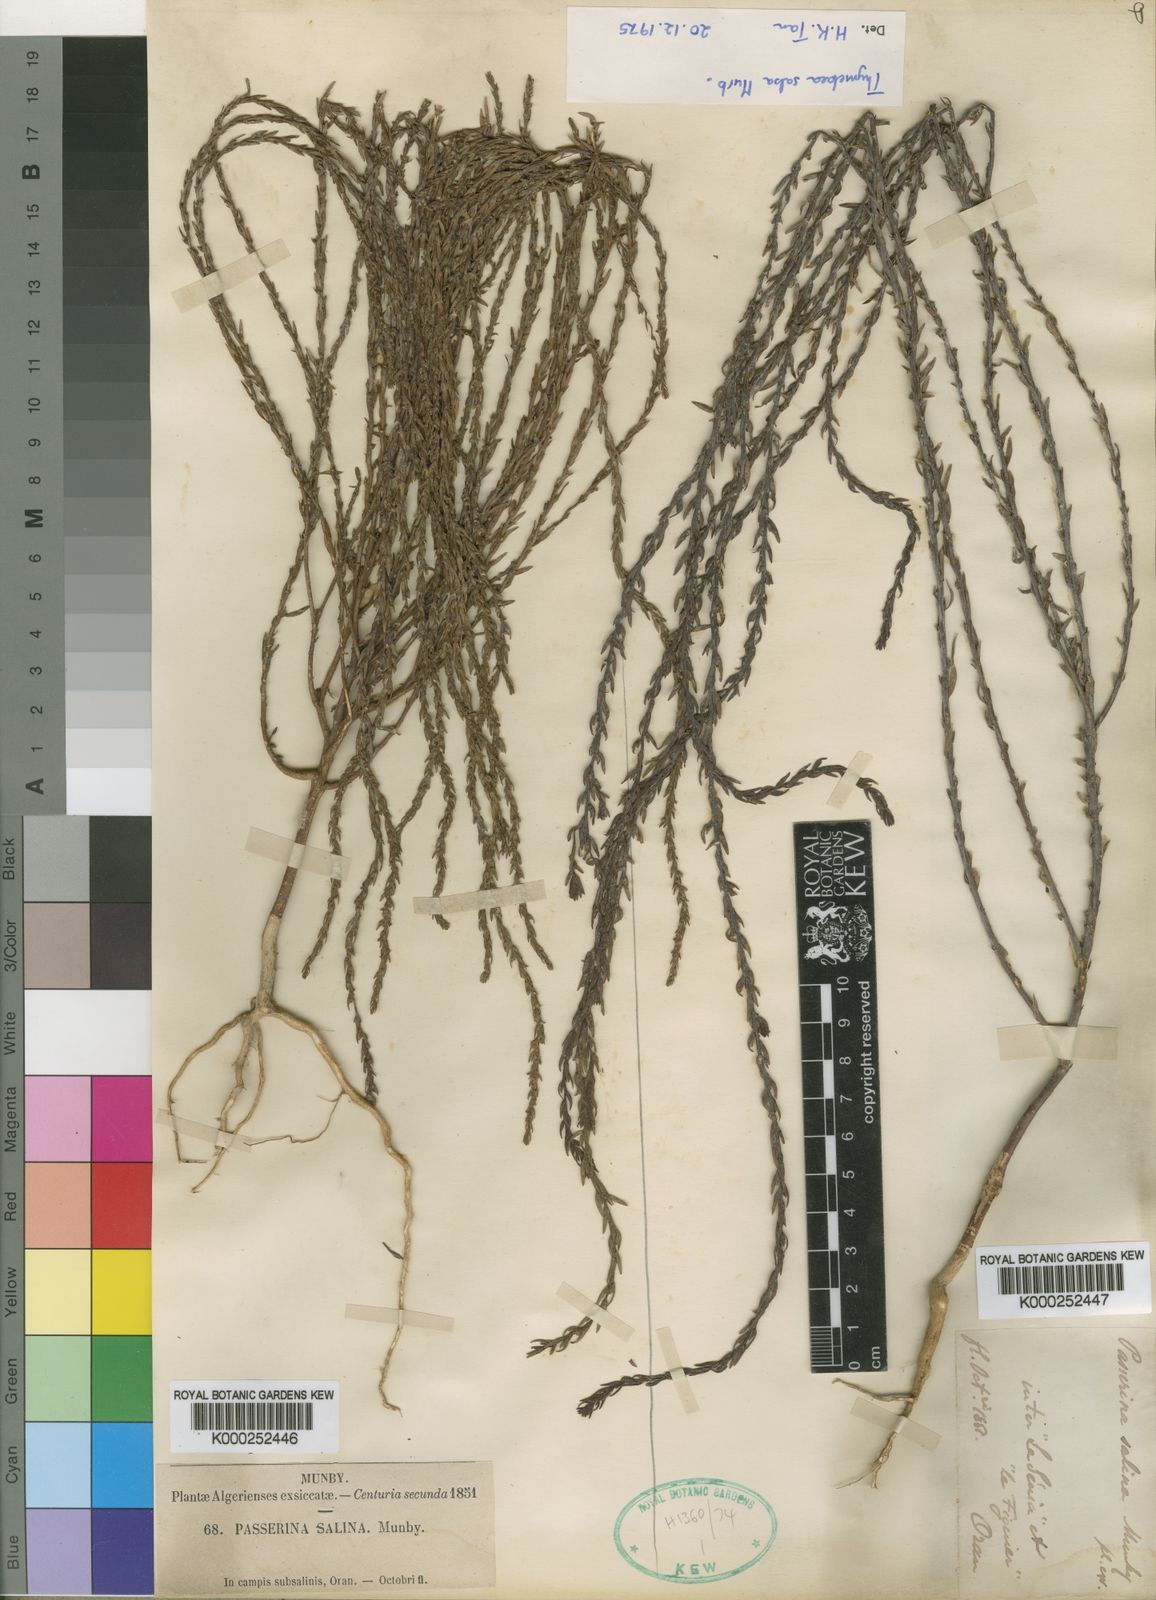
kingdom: Plantae
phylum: Tracheophyta
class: Magnoliopsida
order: Malvales
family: Thymelaeaceae
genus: Thymelaea
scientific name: Thymelaea salsa
